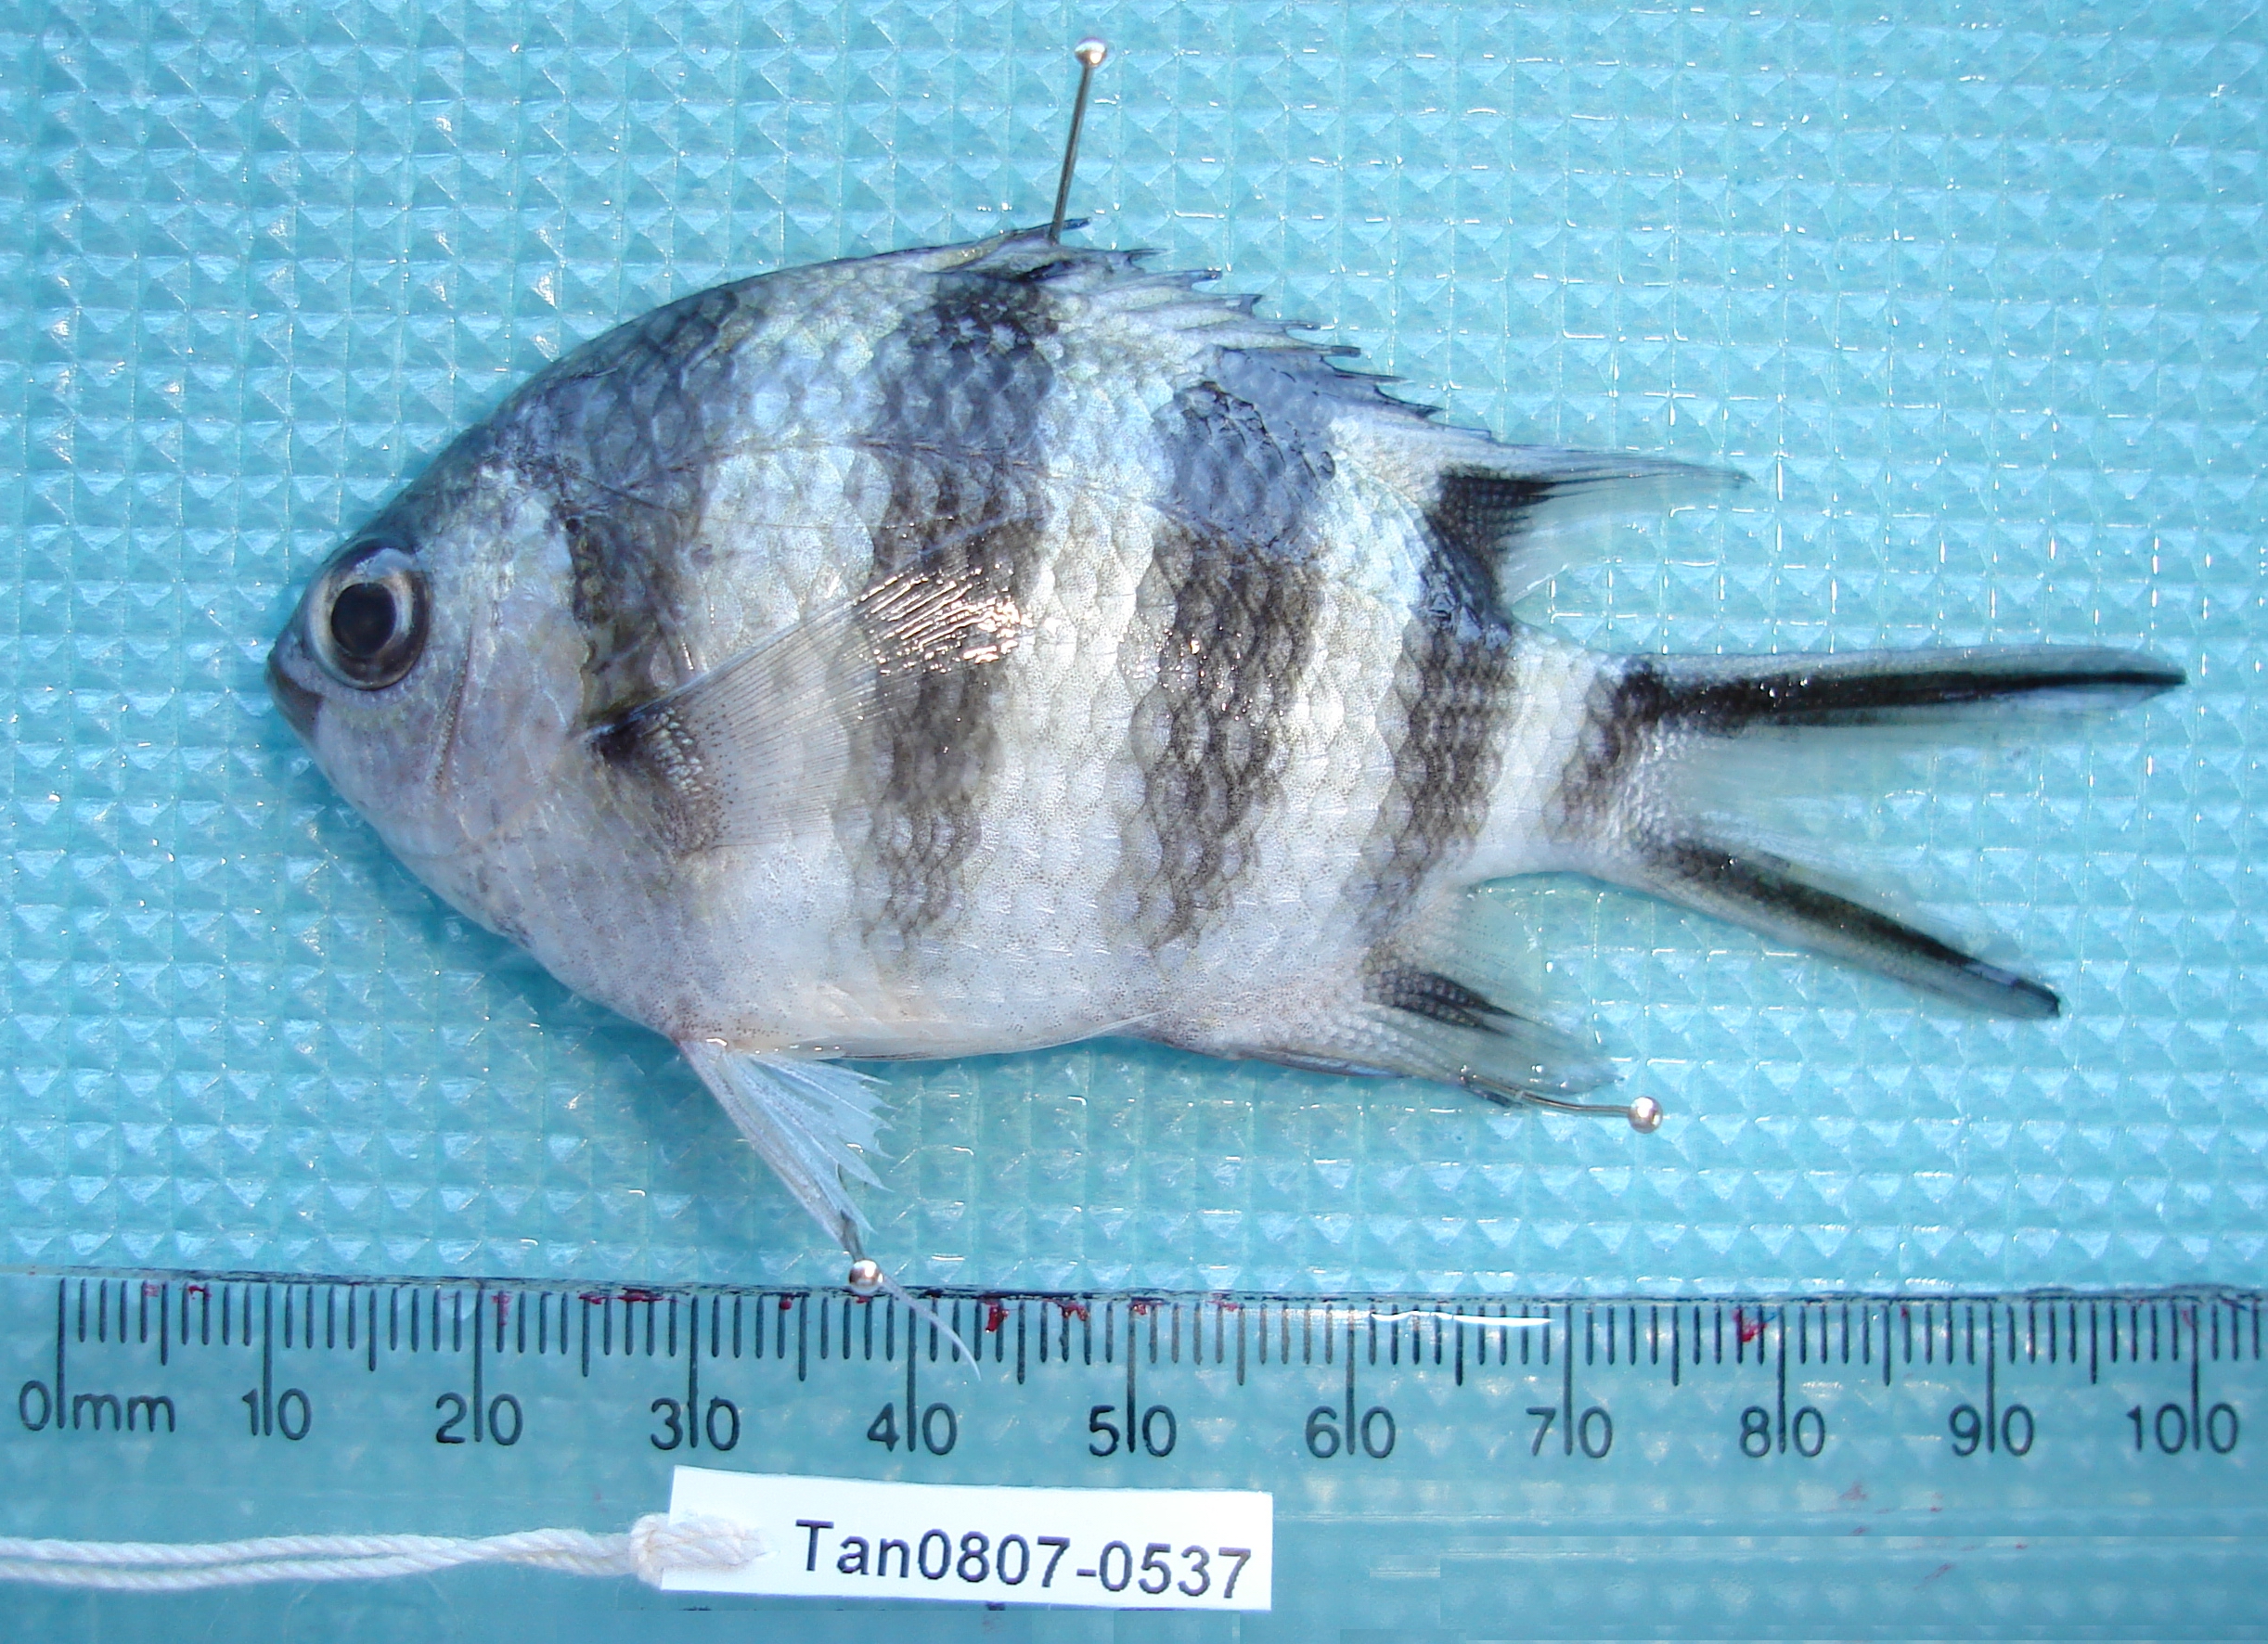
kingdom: Animalia
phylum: Chordata
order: Perciformes
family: Pomacentridae
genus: Abudefduf
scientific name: Abudefduf sexfasciatus
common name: Scissortail sergeant
